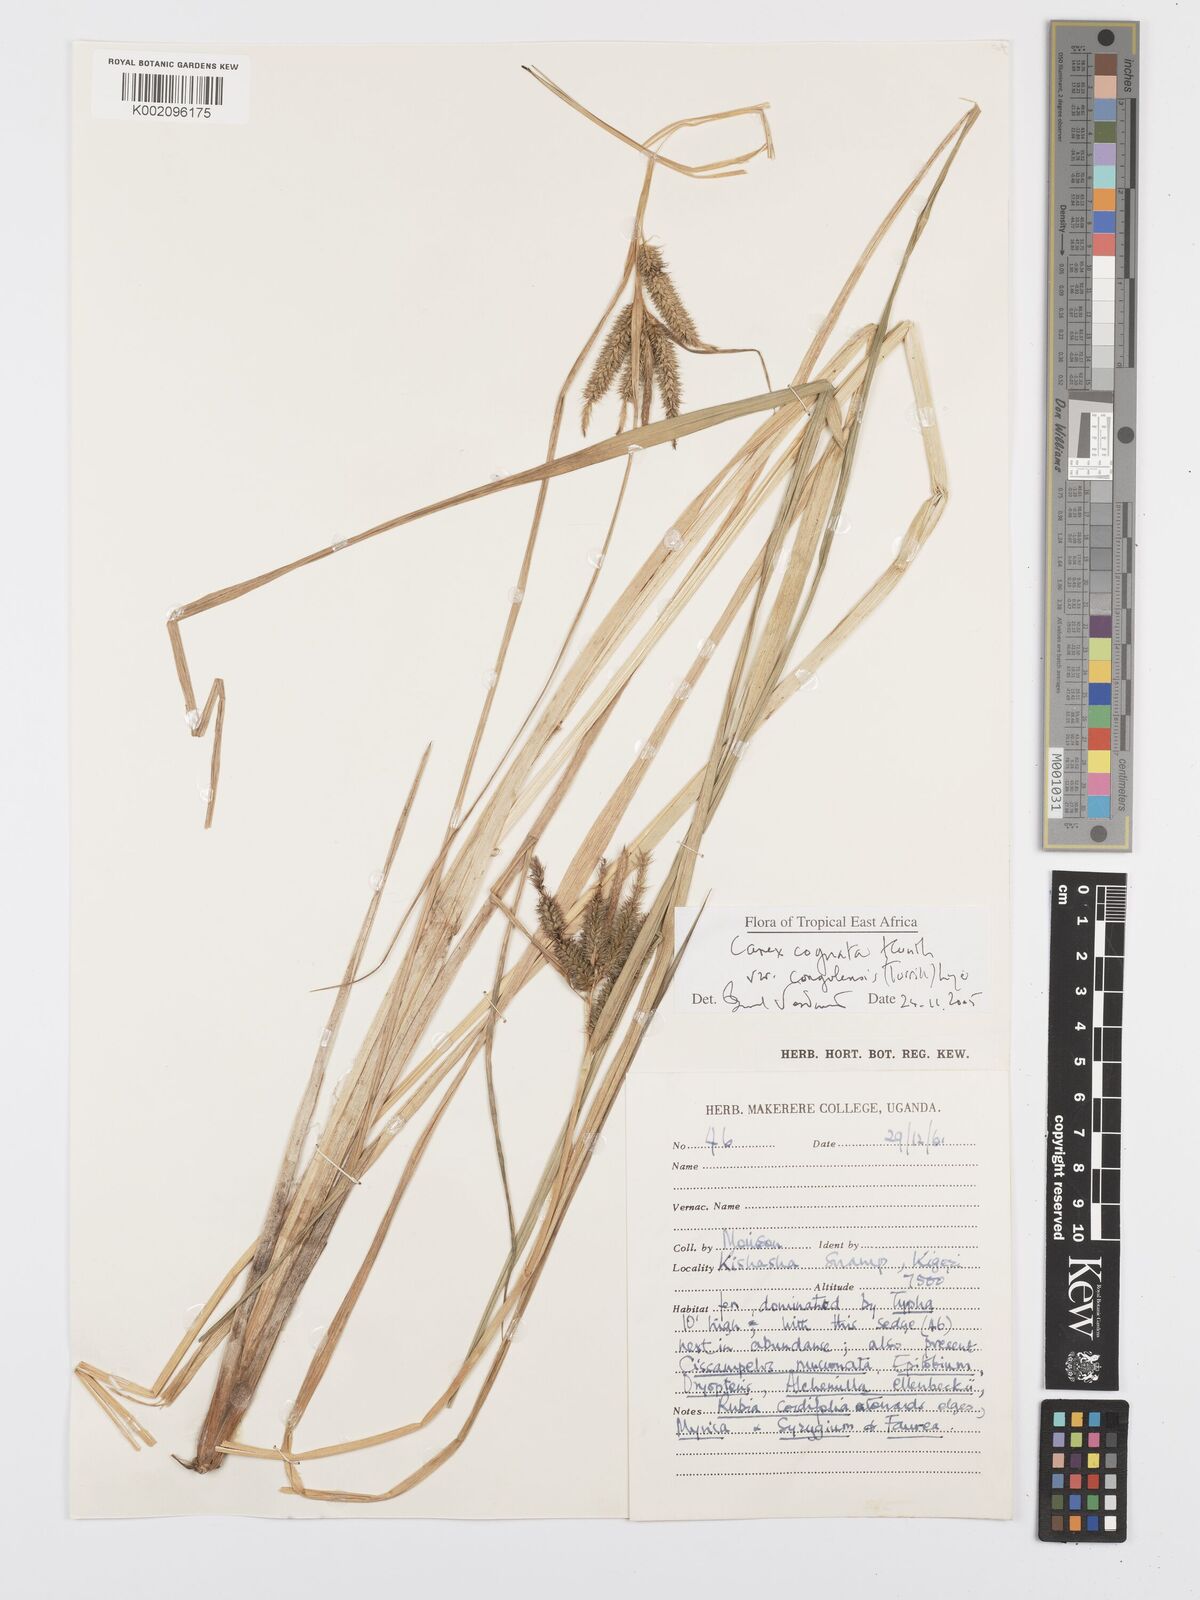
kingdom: Plantae
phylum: Tracheophyta
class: Liliopsida
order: Poales
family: Cyperaceae
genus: Carex
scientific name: Carex cognata
